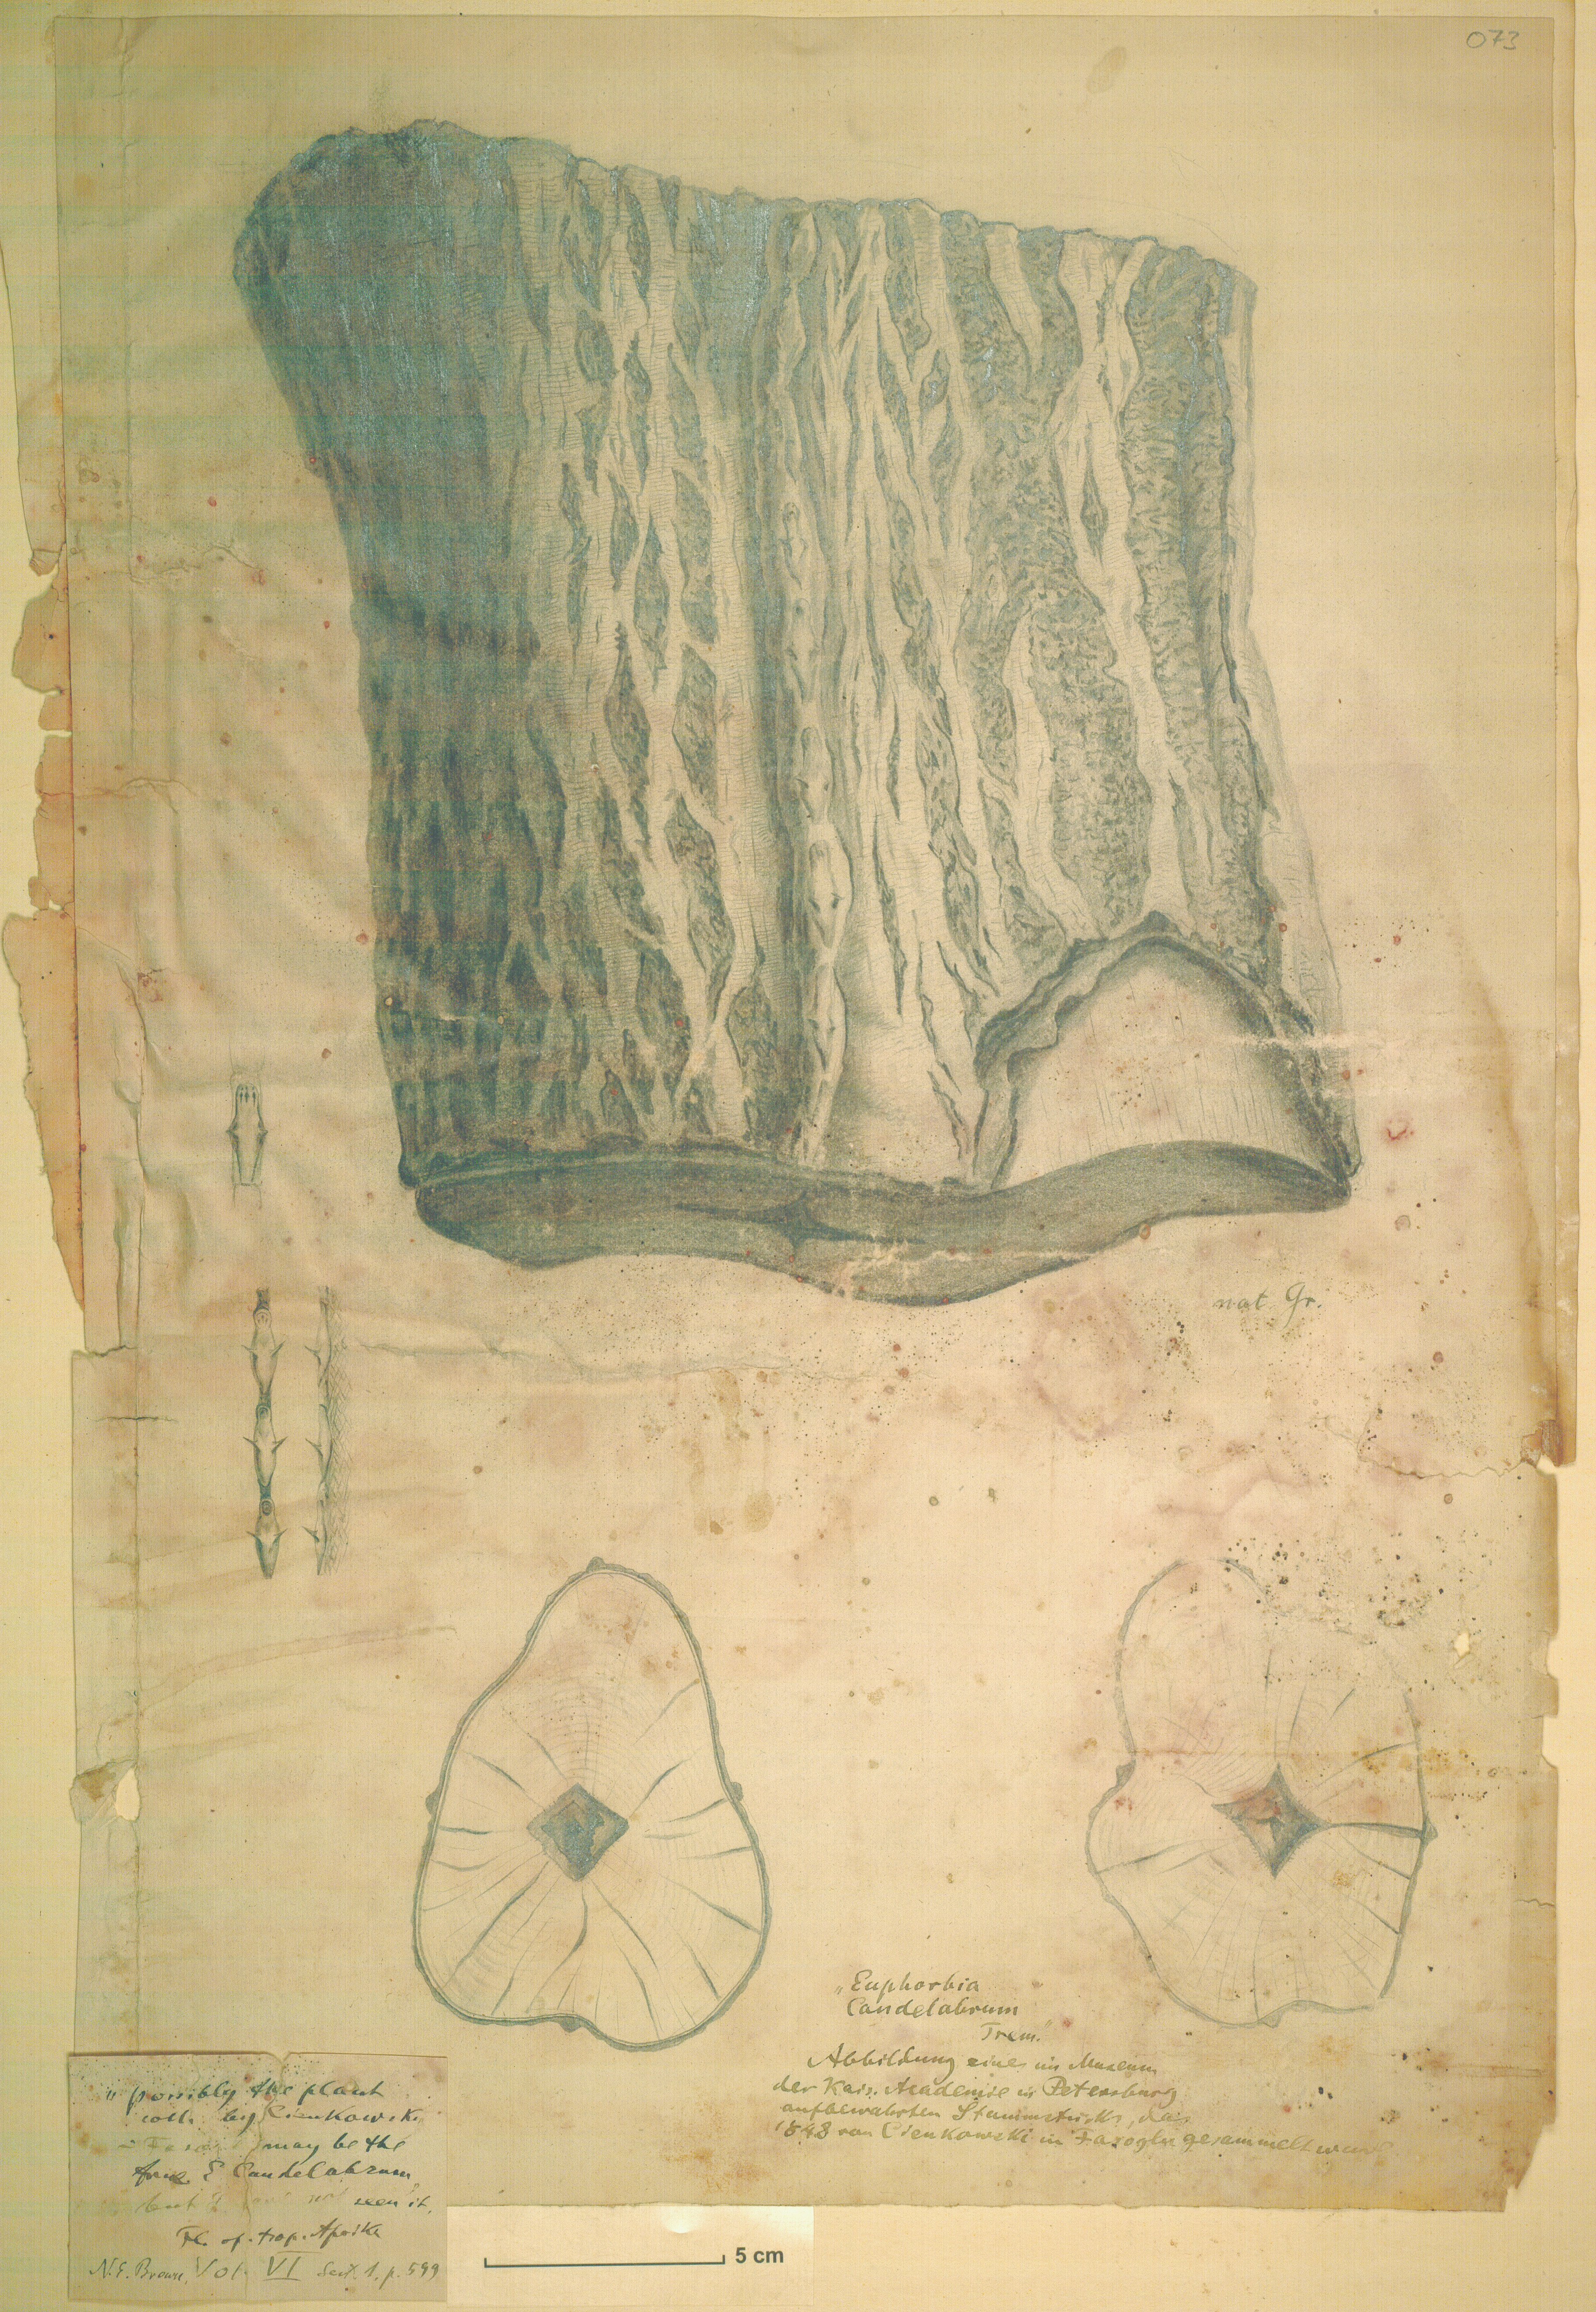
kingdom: Plantae
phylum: Tracheophyta
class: Magnoliopsida
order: Malpighiales
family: Euphorbiaceae
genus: Euphorbia
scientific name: Euphorbia candelabrum
